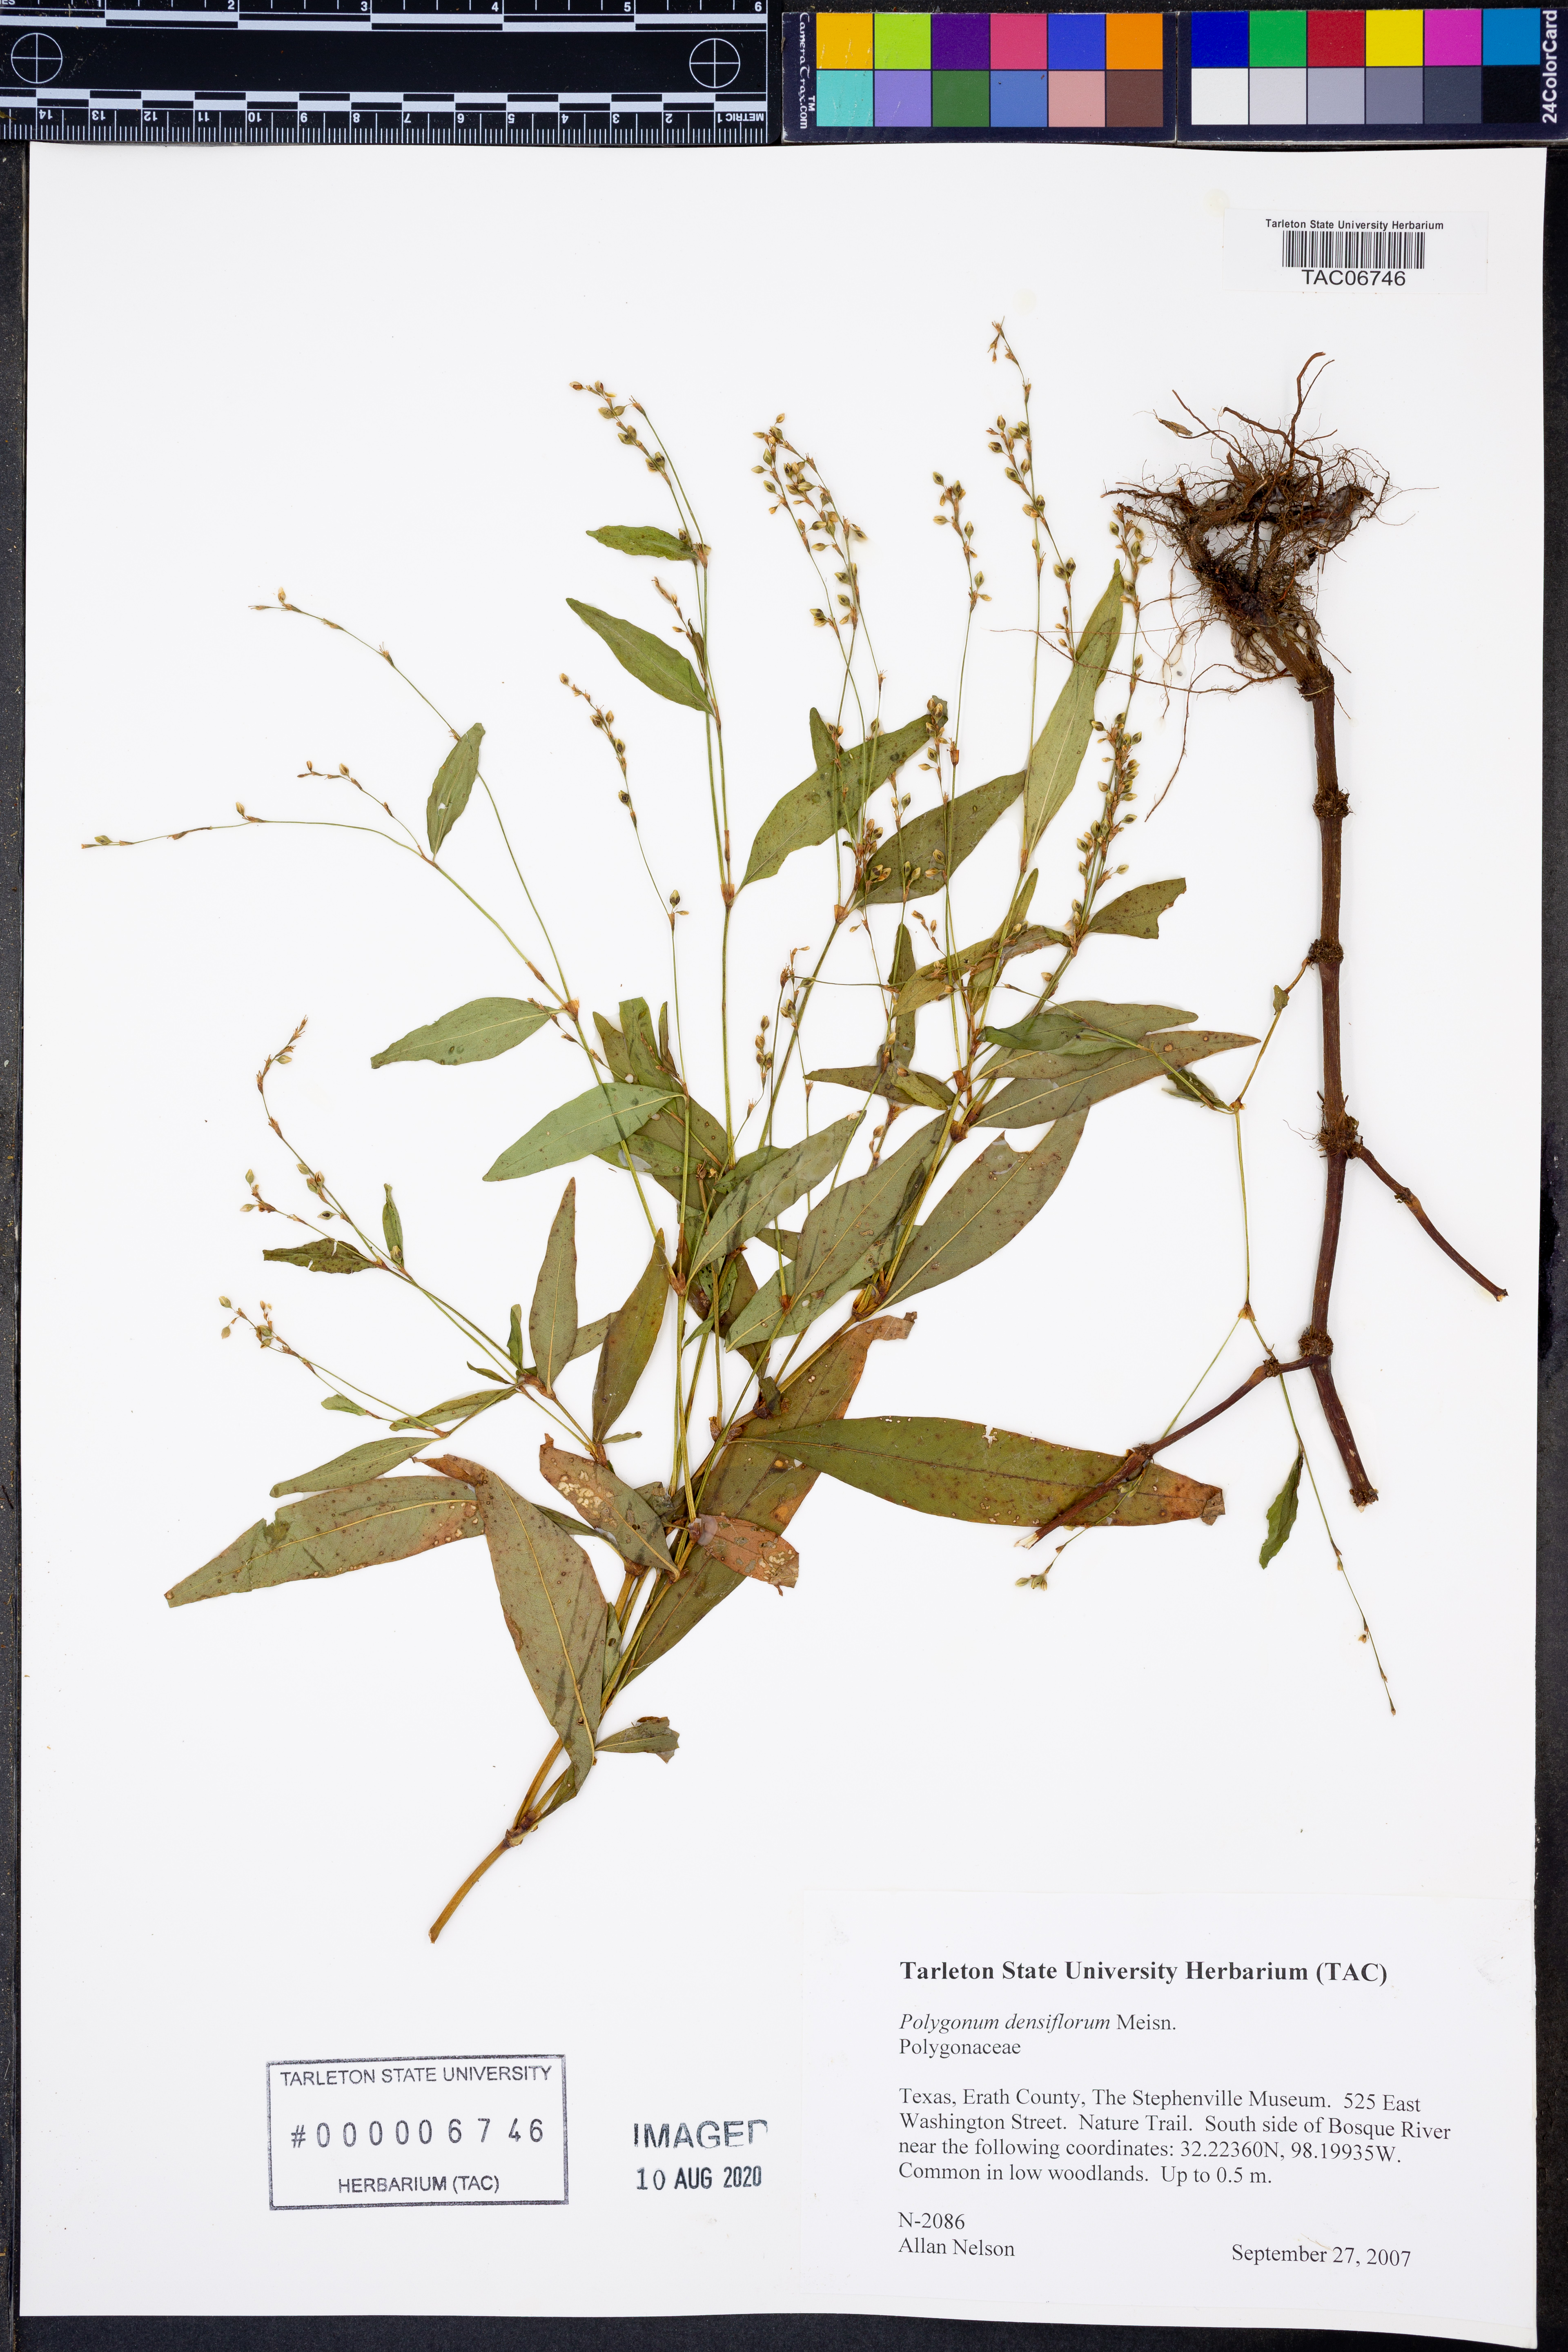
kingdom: Plantae
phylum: Tracheophyta
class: Magnoliopsida
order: Caryophyllales
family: Polygonaceae
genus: Persicaria
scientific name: Persicaria glabra
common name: Denseflower knotweed
